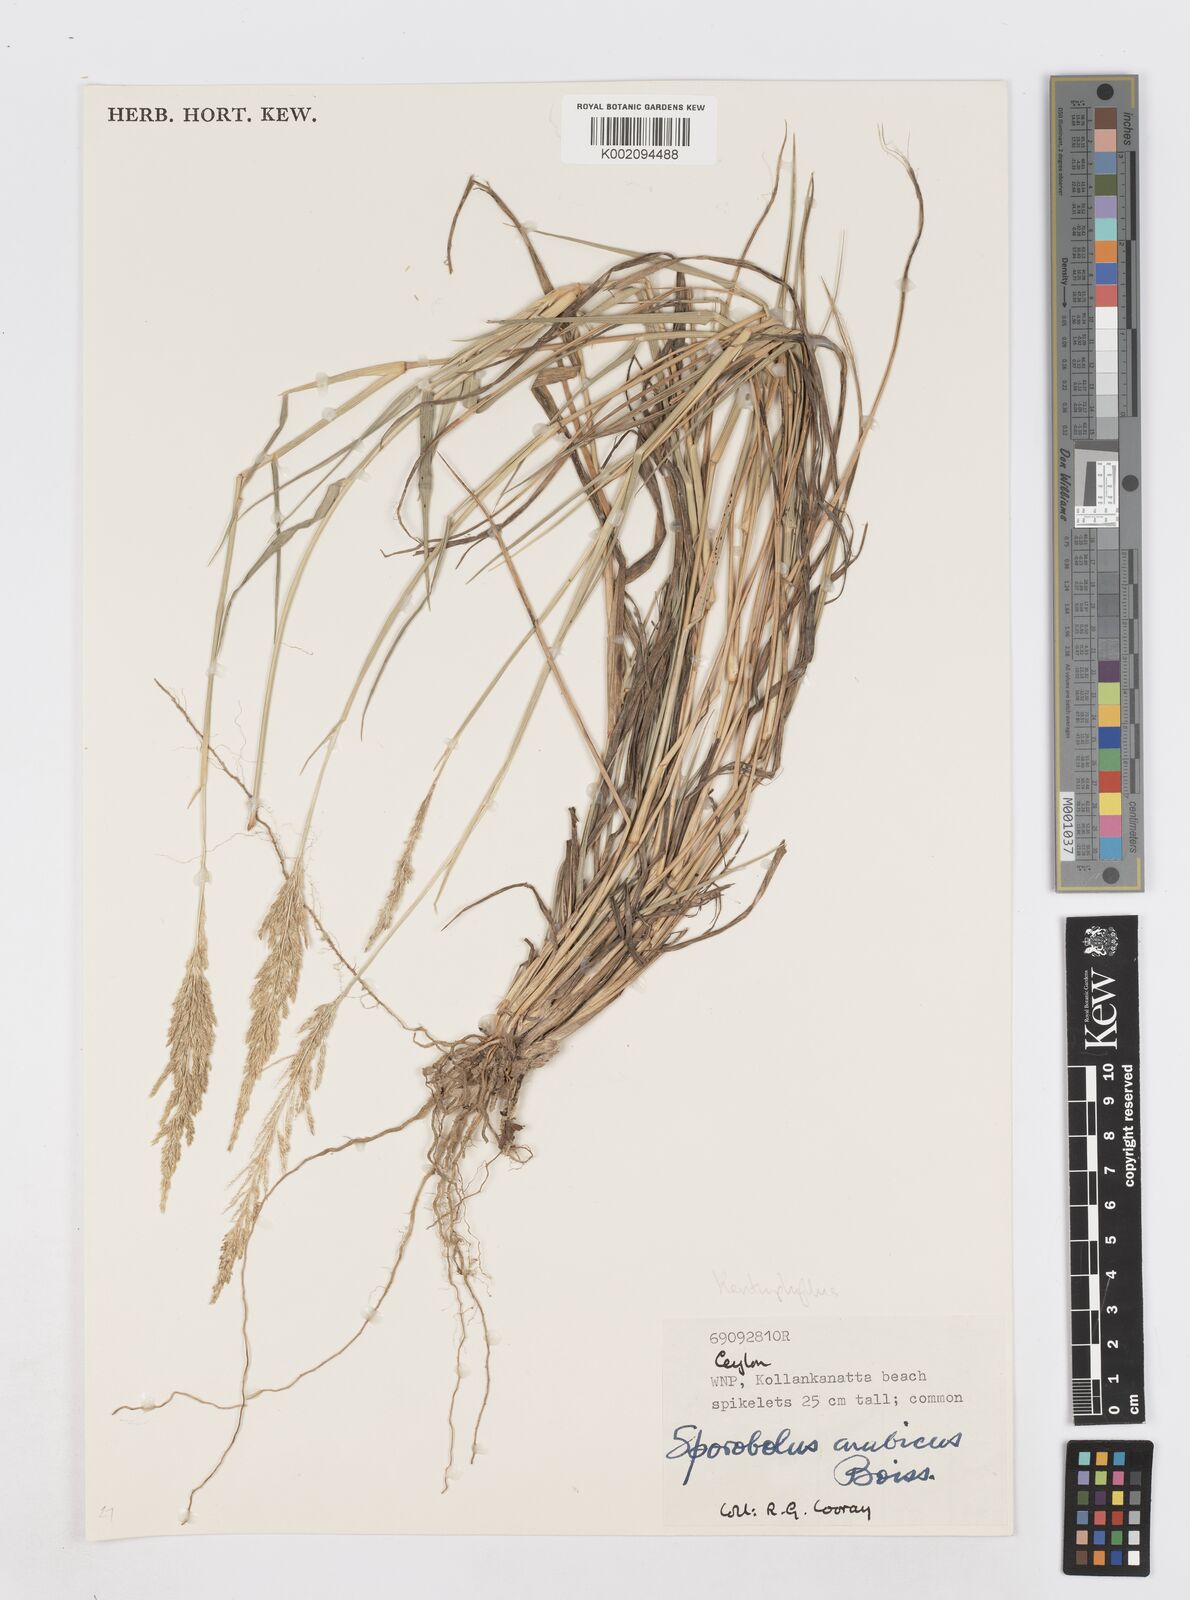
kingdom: Plantae
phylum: Tracheophyta
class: Liliopsida
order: Poales
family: Poaceae
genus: Sporobolus
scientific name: Sporobolus ioclados
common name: Pan dropseed
